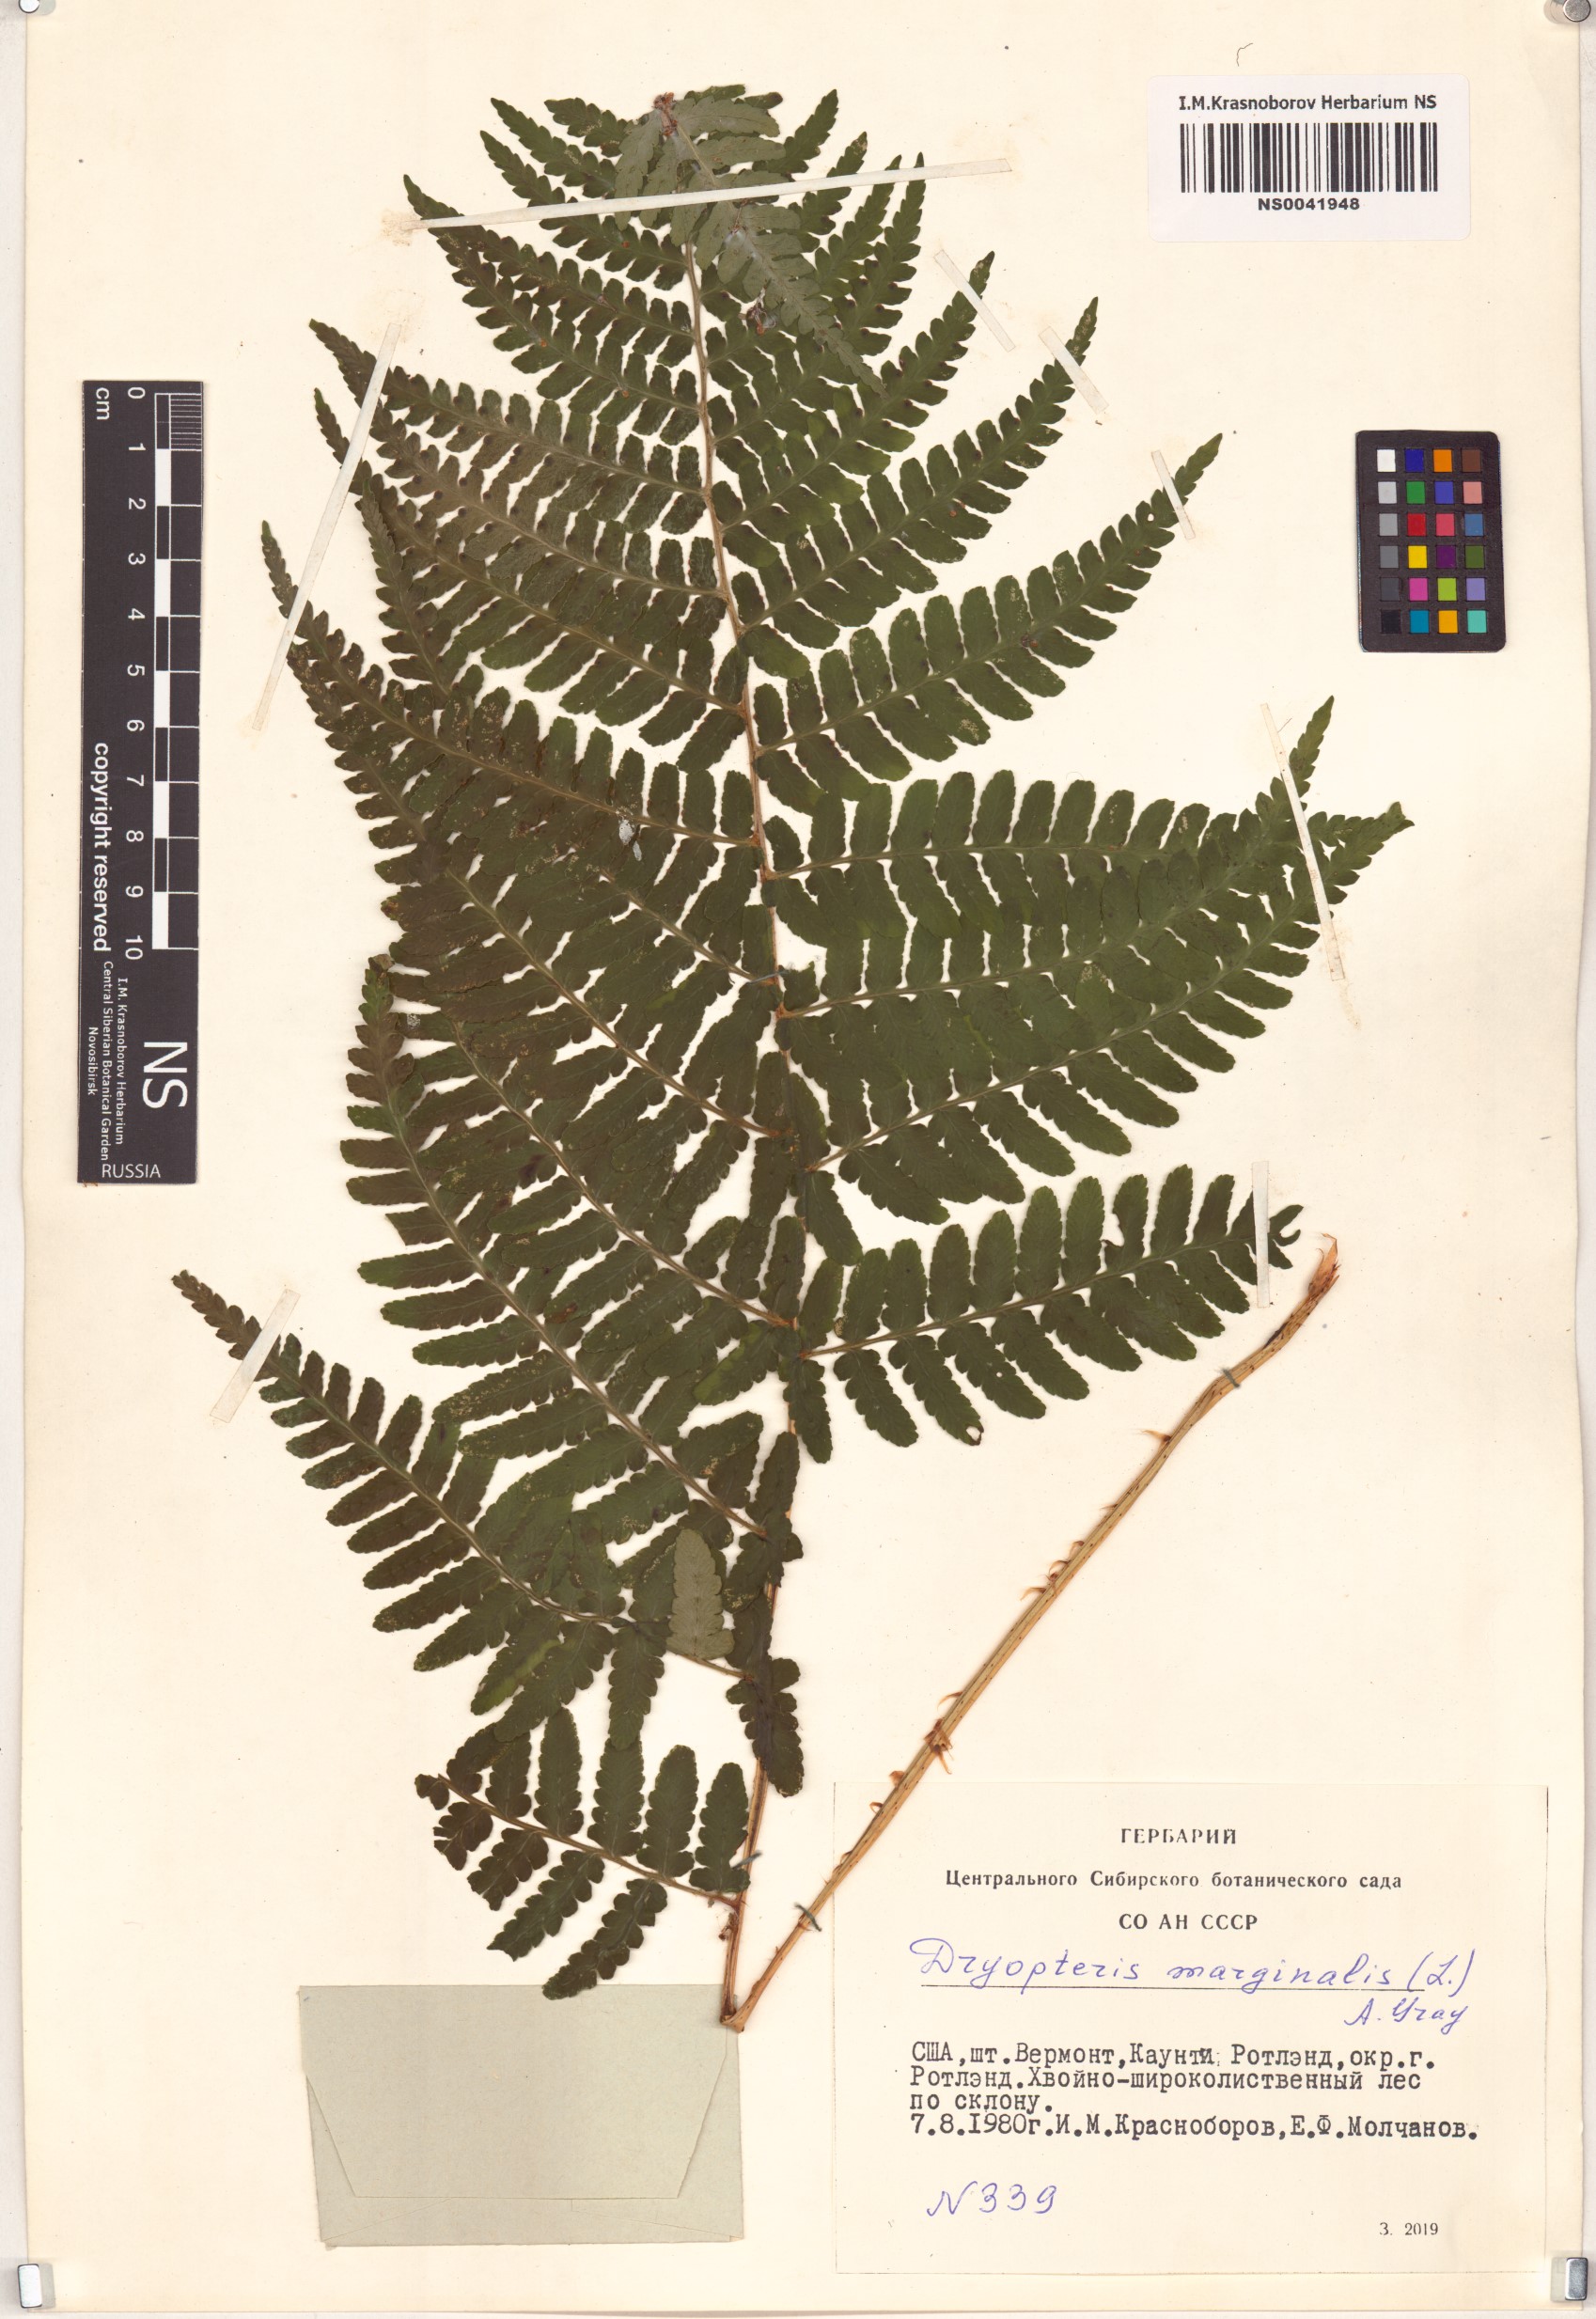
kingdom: Plantae
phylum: Tracheophyta
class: Polypodiopsida
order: Polypodiales
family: Dryopteridaceae
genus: Dryopteris
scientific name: Dryopteris marginalis
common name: Marginal wood fern
